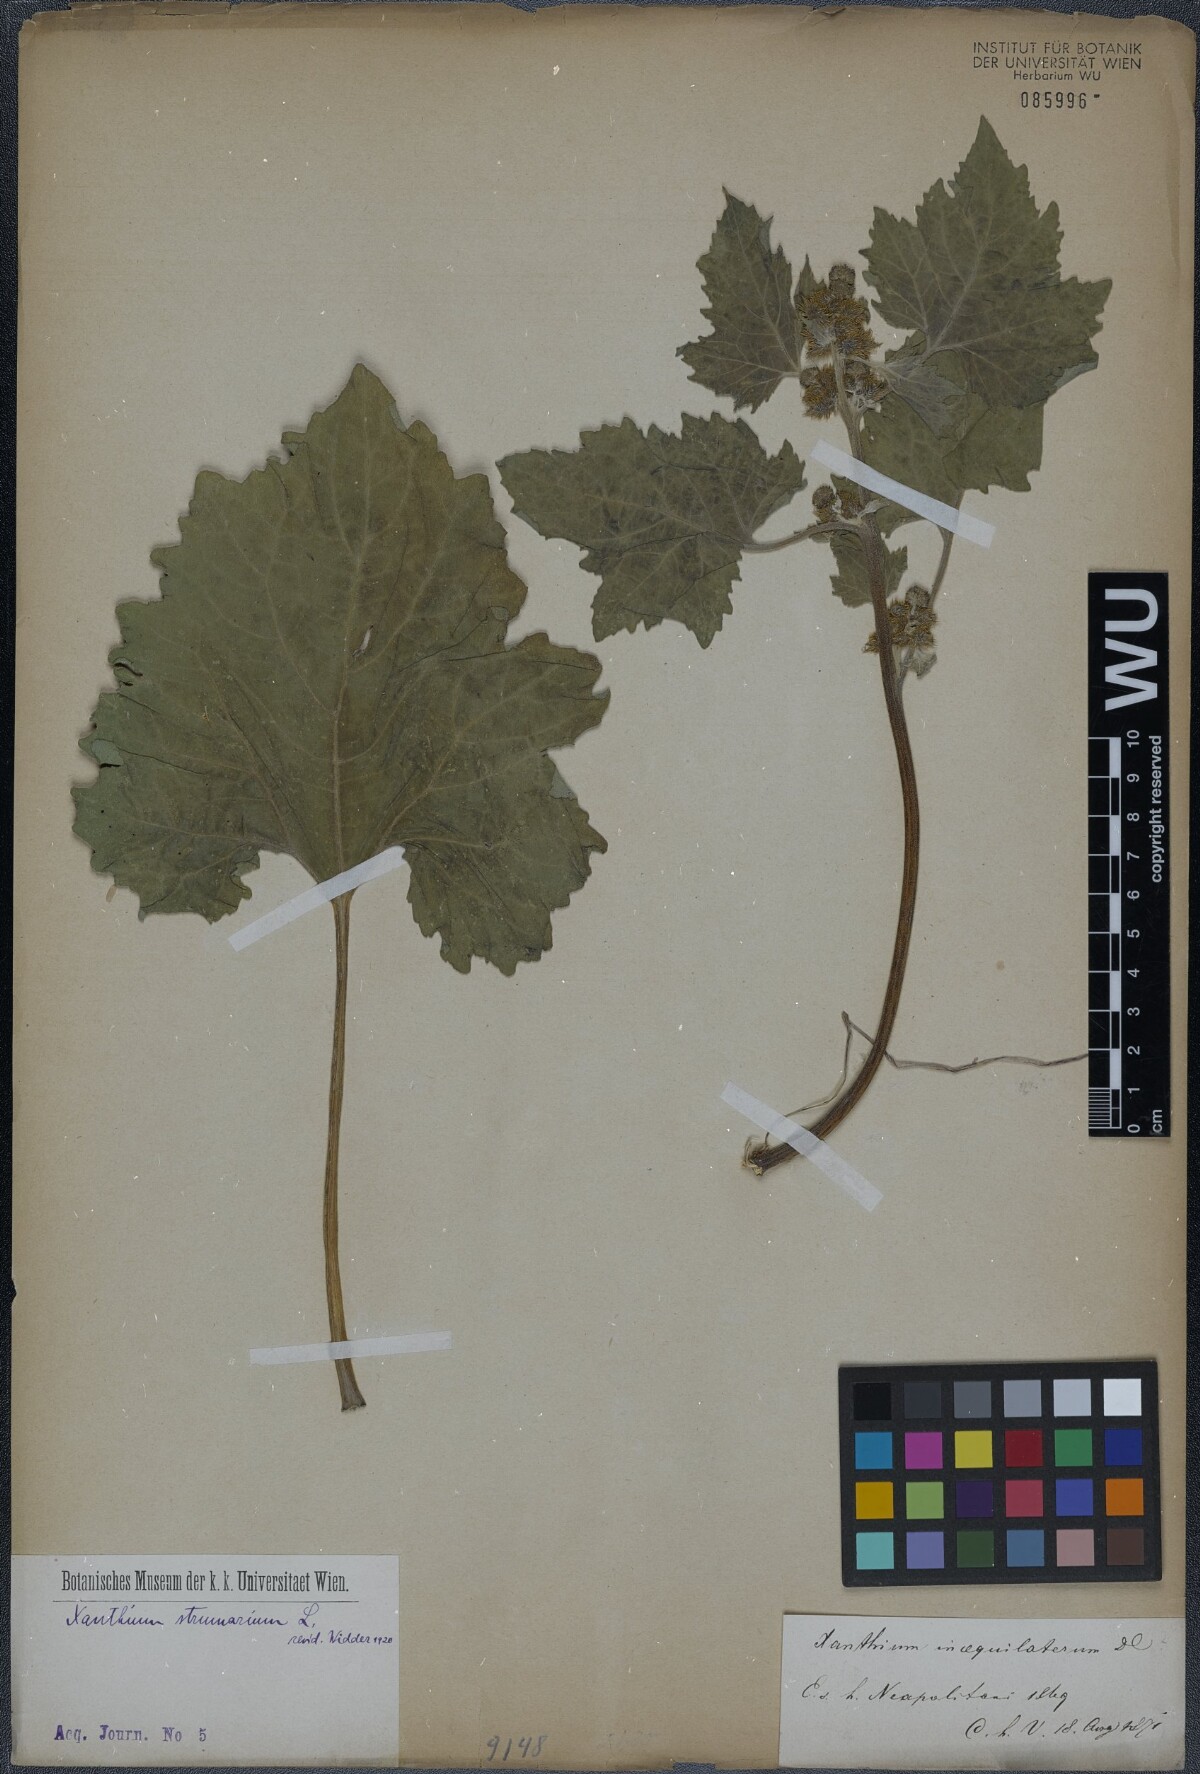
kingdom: Plantae
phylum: Tracheophyta
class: Magnoliopsida
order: Asterales
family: Asteraceae
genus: Xanthium
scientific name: Xanthium strumarium
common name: Rough cocklebur
